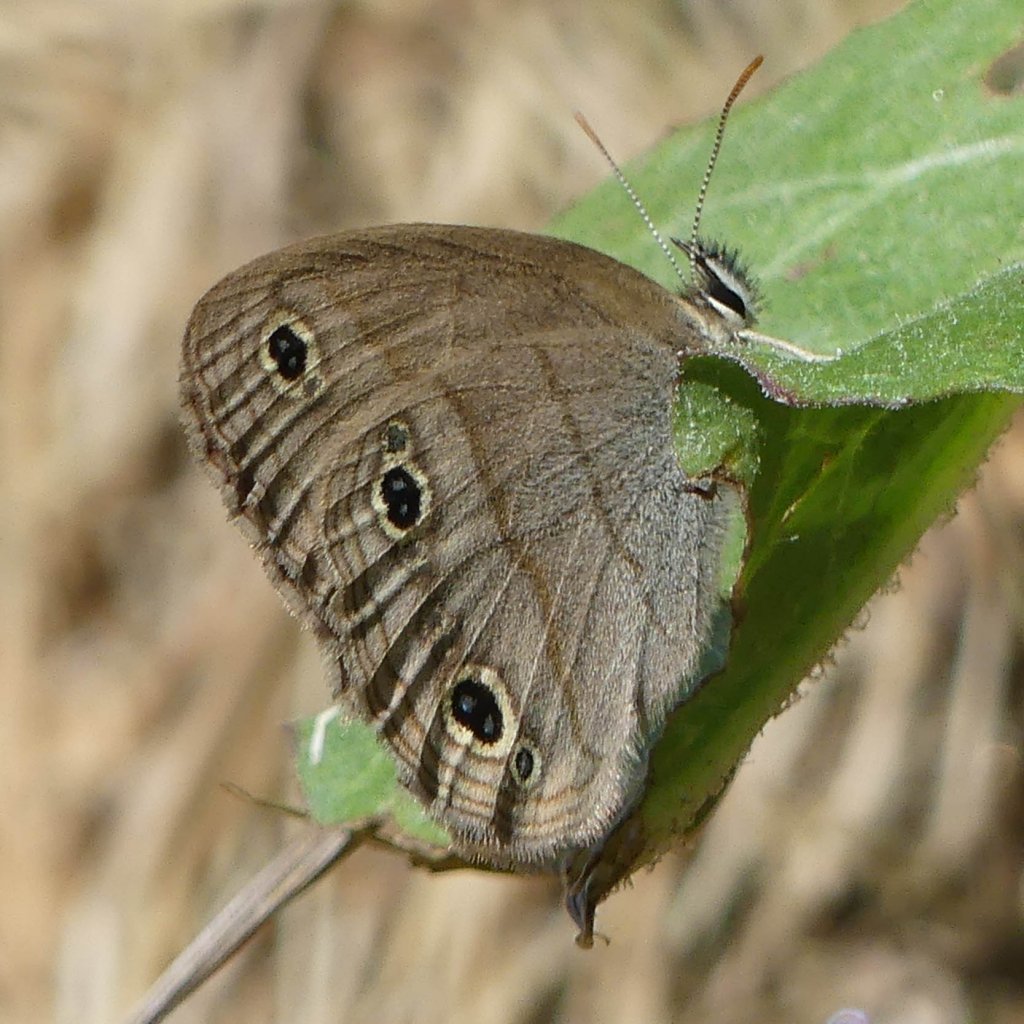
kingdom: Animalia
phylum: Arthropoda
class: Insecta
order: Lepidoptera
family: Nymphalidae
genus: Euptychia
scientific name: Euptychia cymela
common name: Little Wood Satyr
